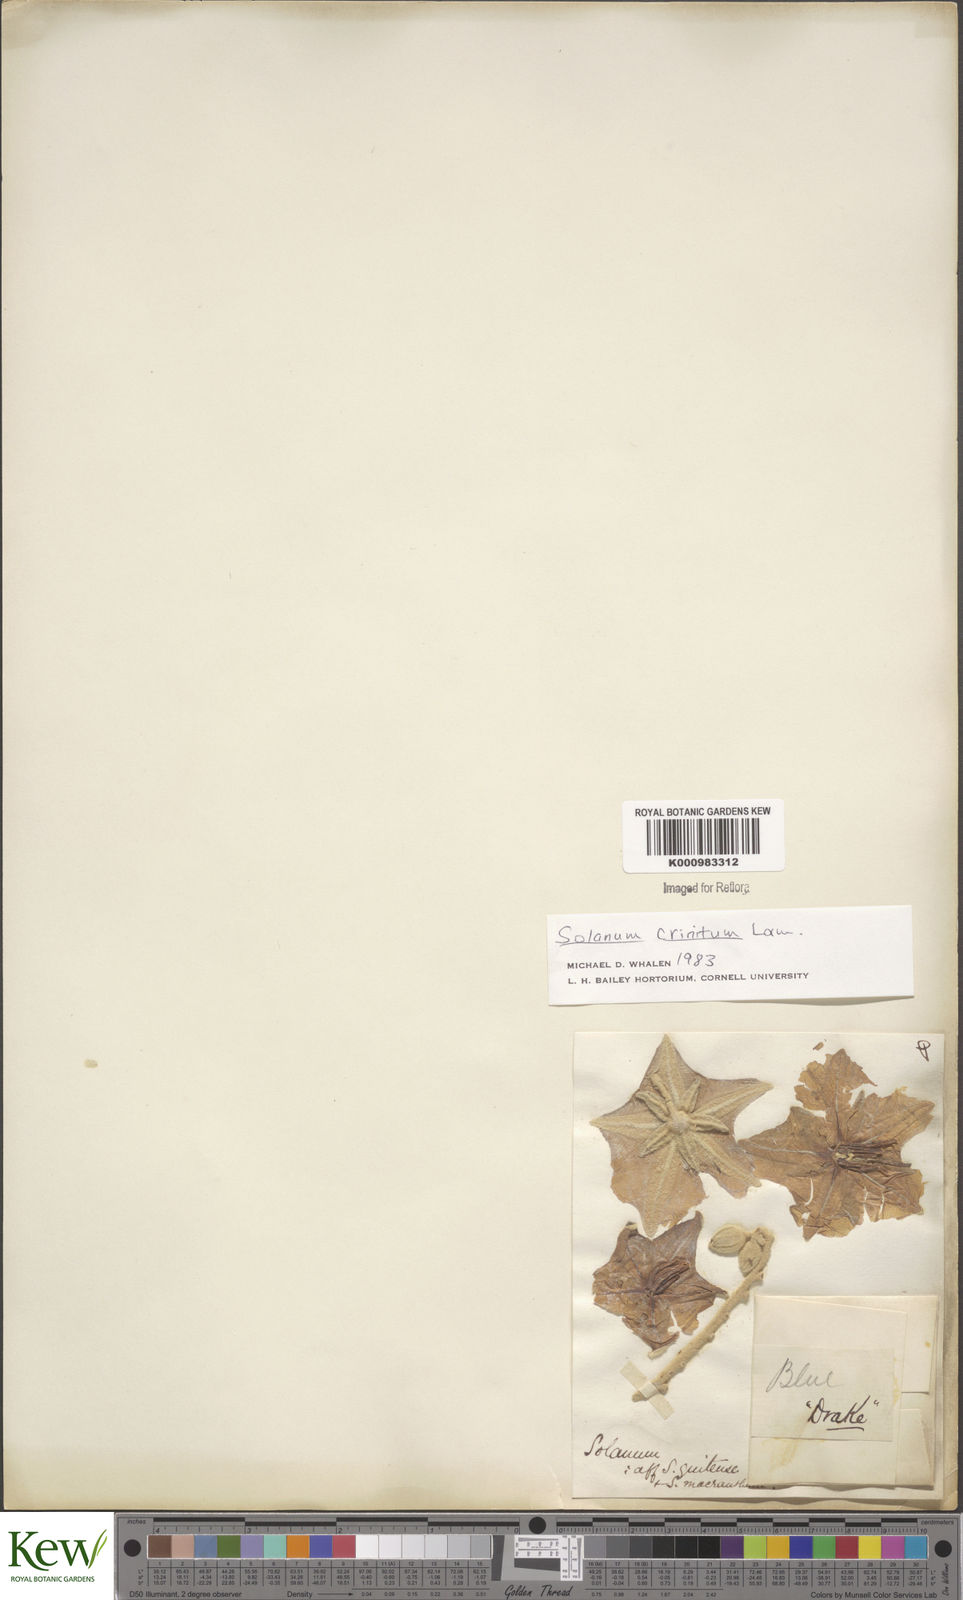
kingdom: Plantae
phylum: Tracheophyta
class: Magnoliopsida
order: Solanales
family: Solanaceae
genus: Solanum
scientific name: Solanum crinitum
